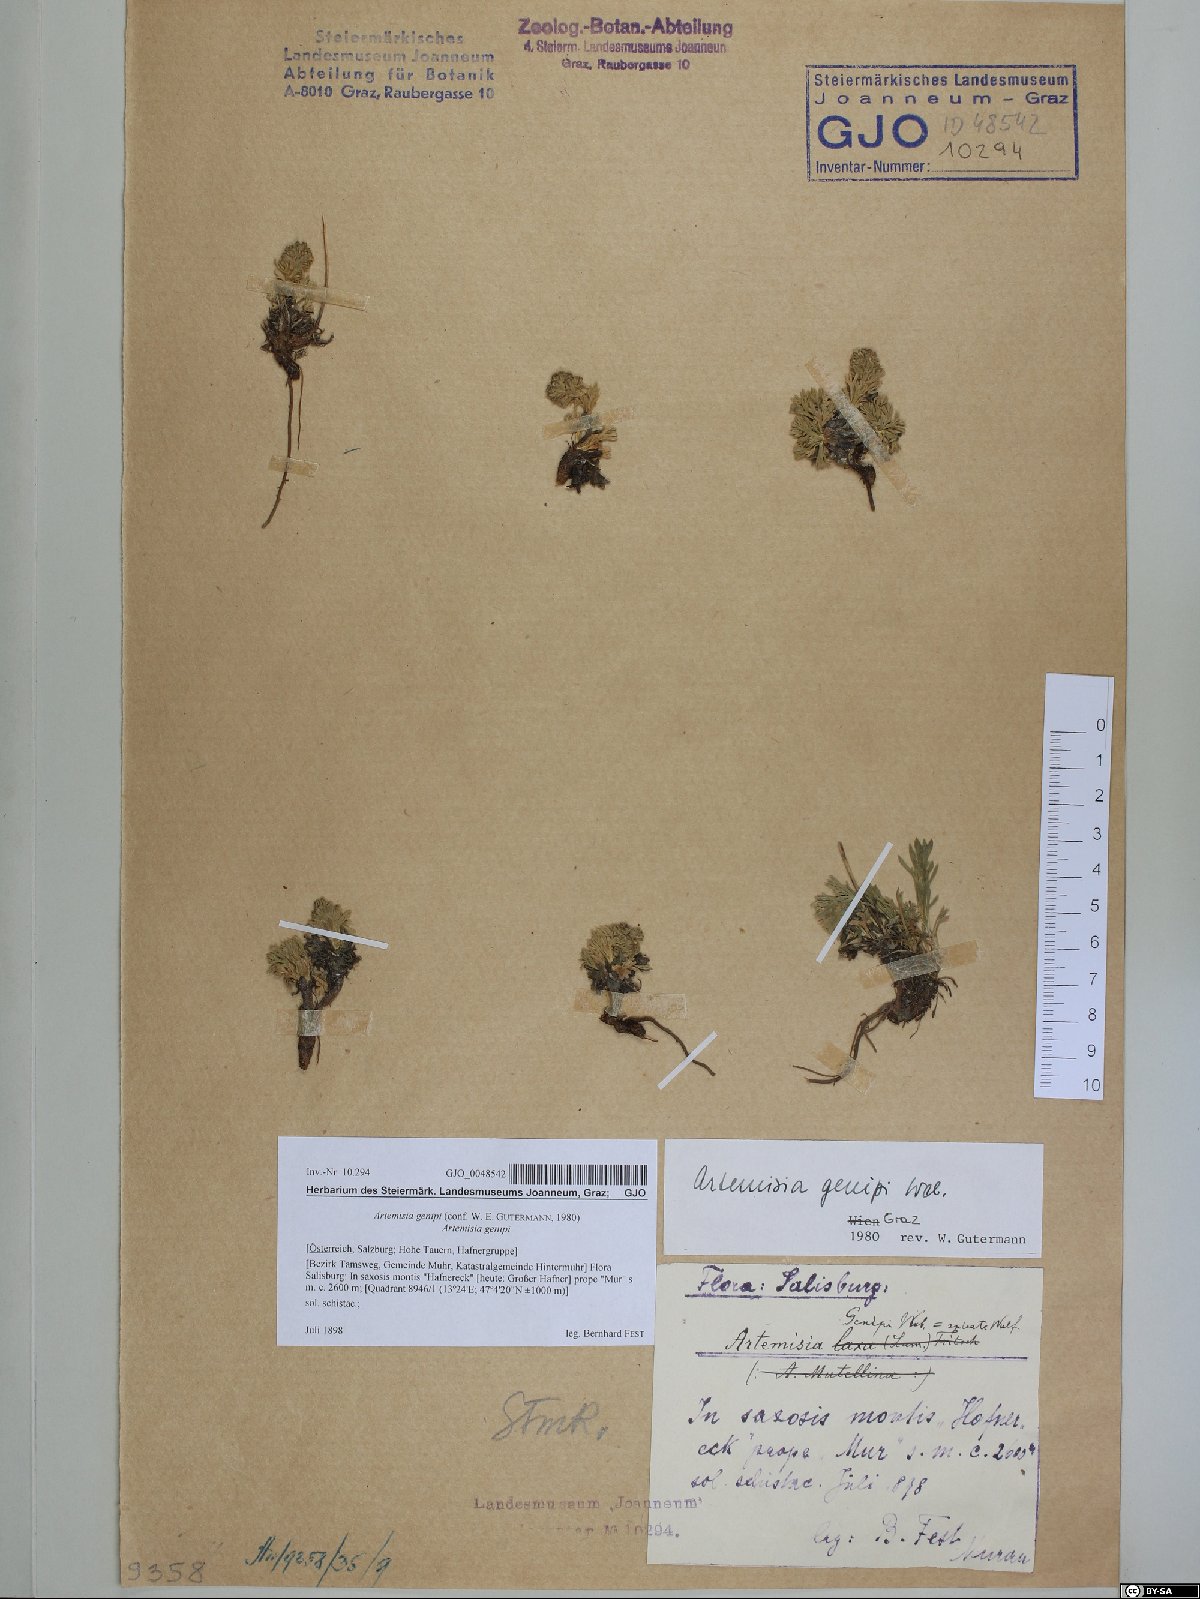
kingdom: Plantae
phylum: Tracheophyta
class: Magnoliopsida
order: Asterales
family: Asteraceae
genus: Artemisia
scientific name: Artemisia genipi
